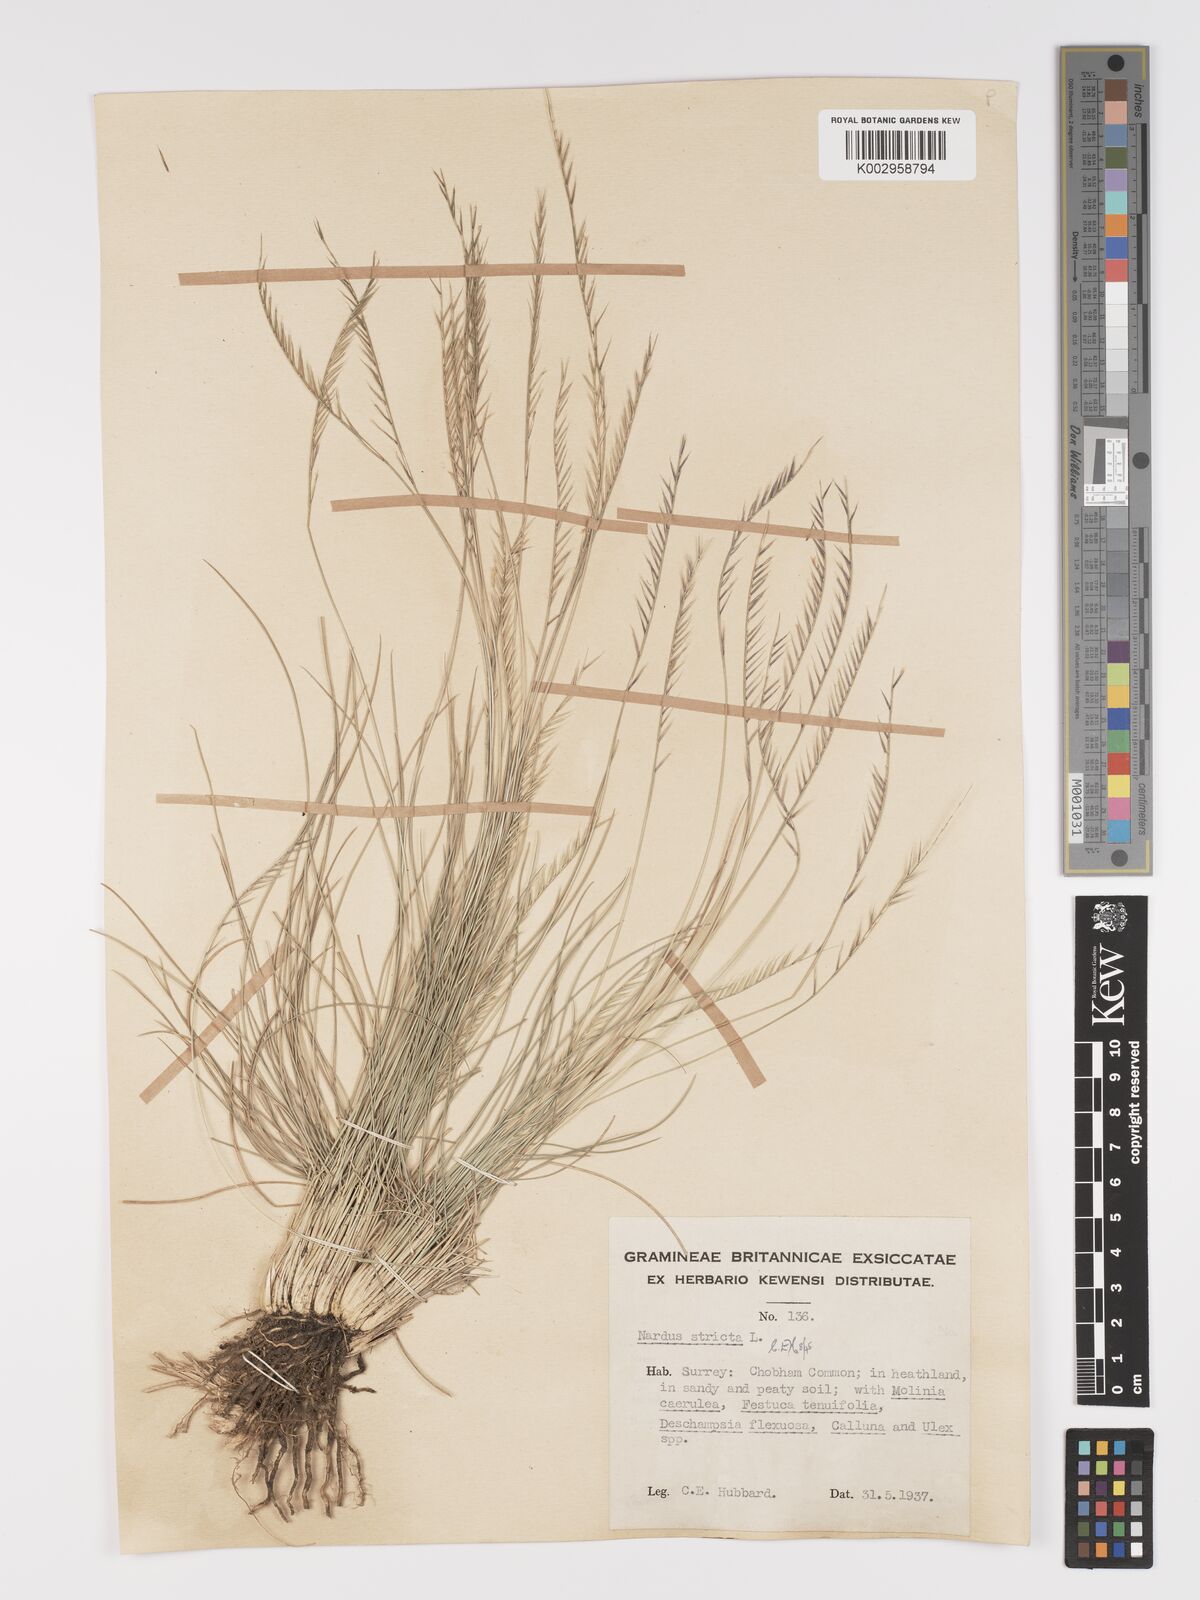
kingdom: Plantae
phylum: Tracheophyta
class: Liliopsida
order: Poales
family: Poaceae
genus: Nardus
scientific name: Nardus stricta
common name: Mat-grass
